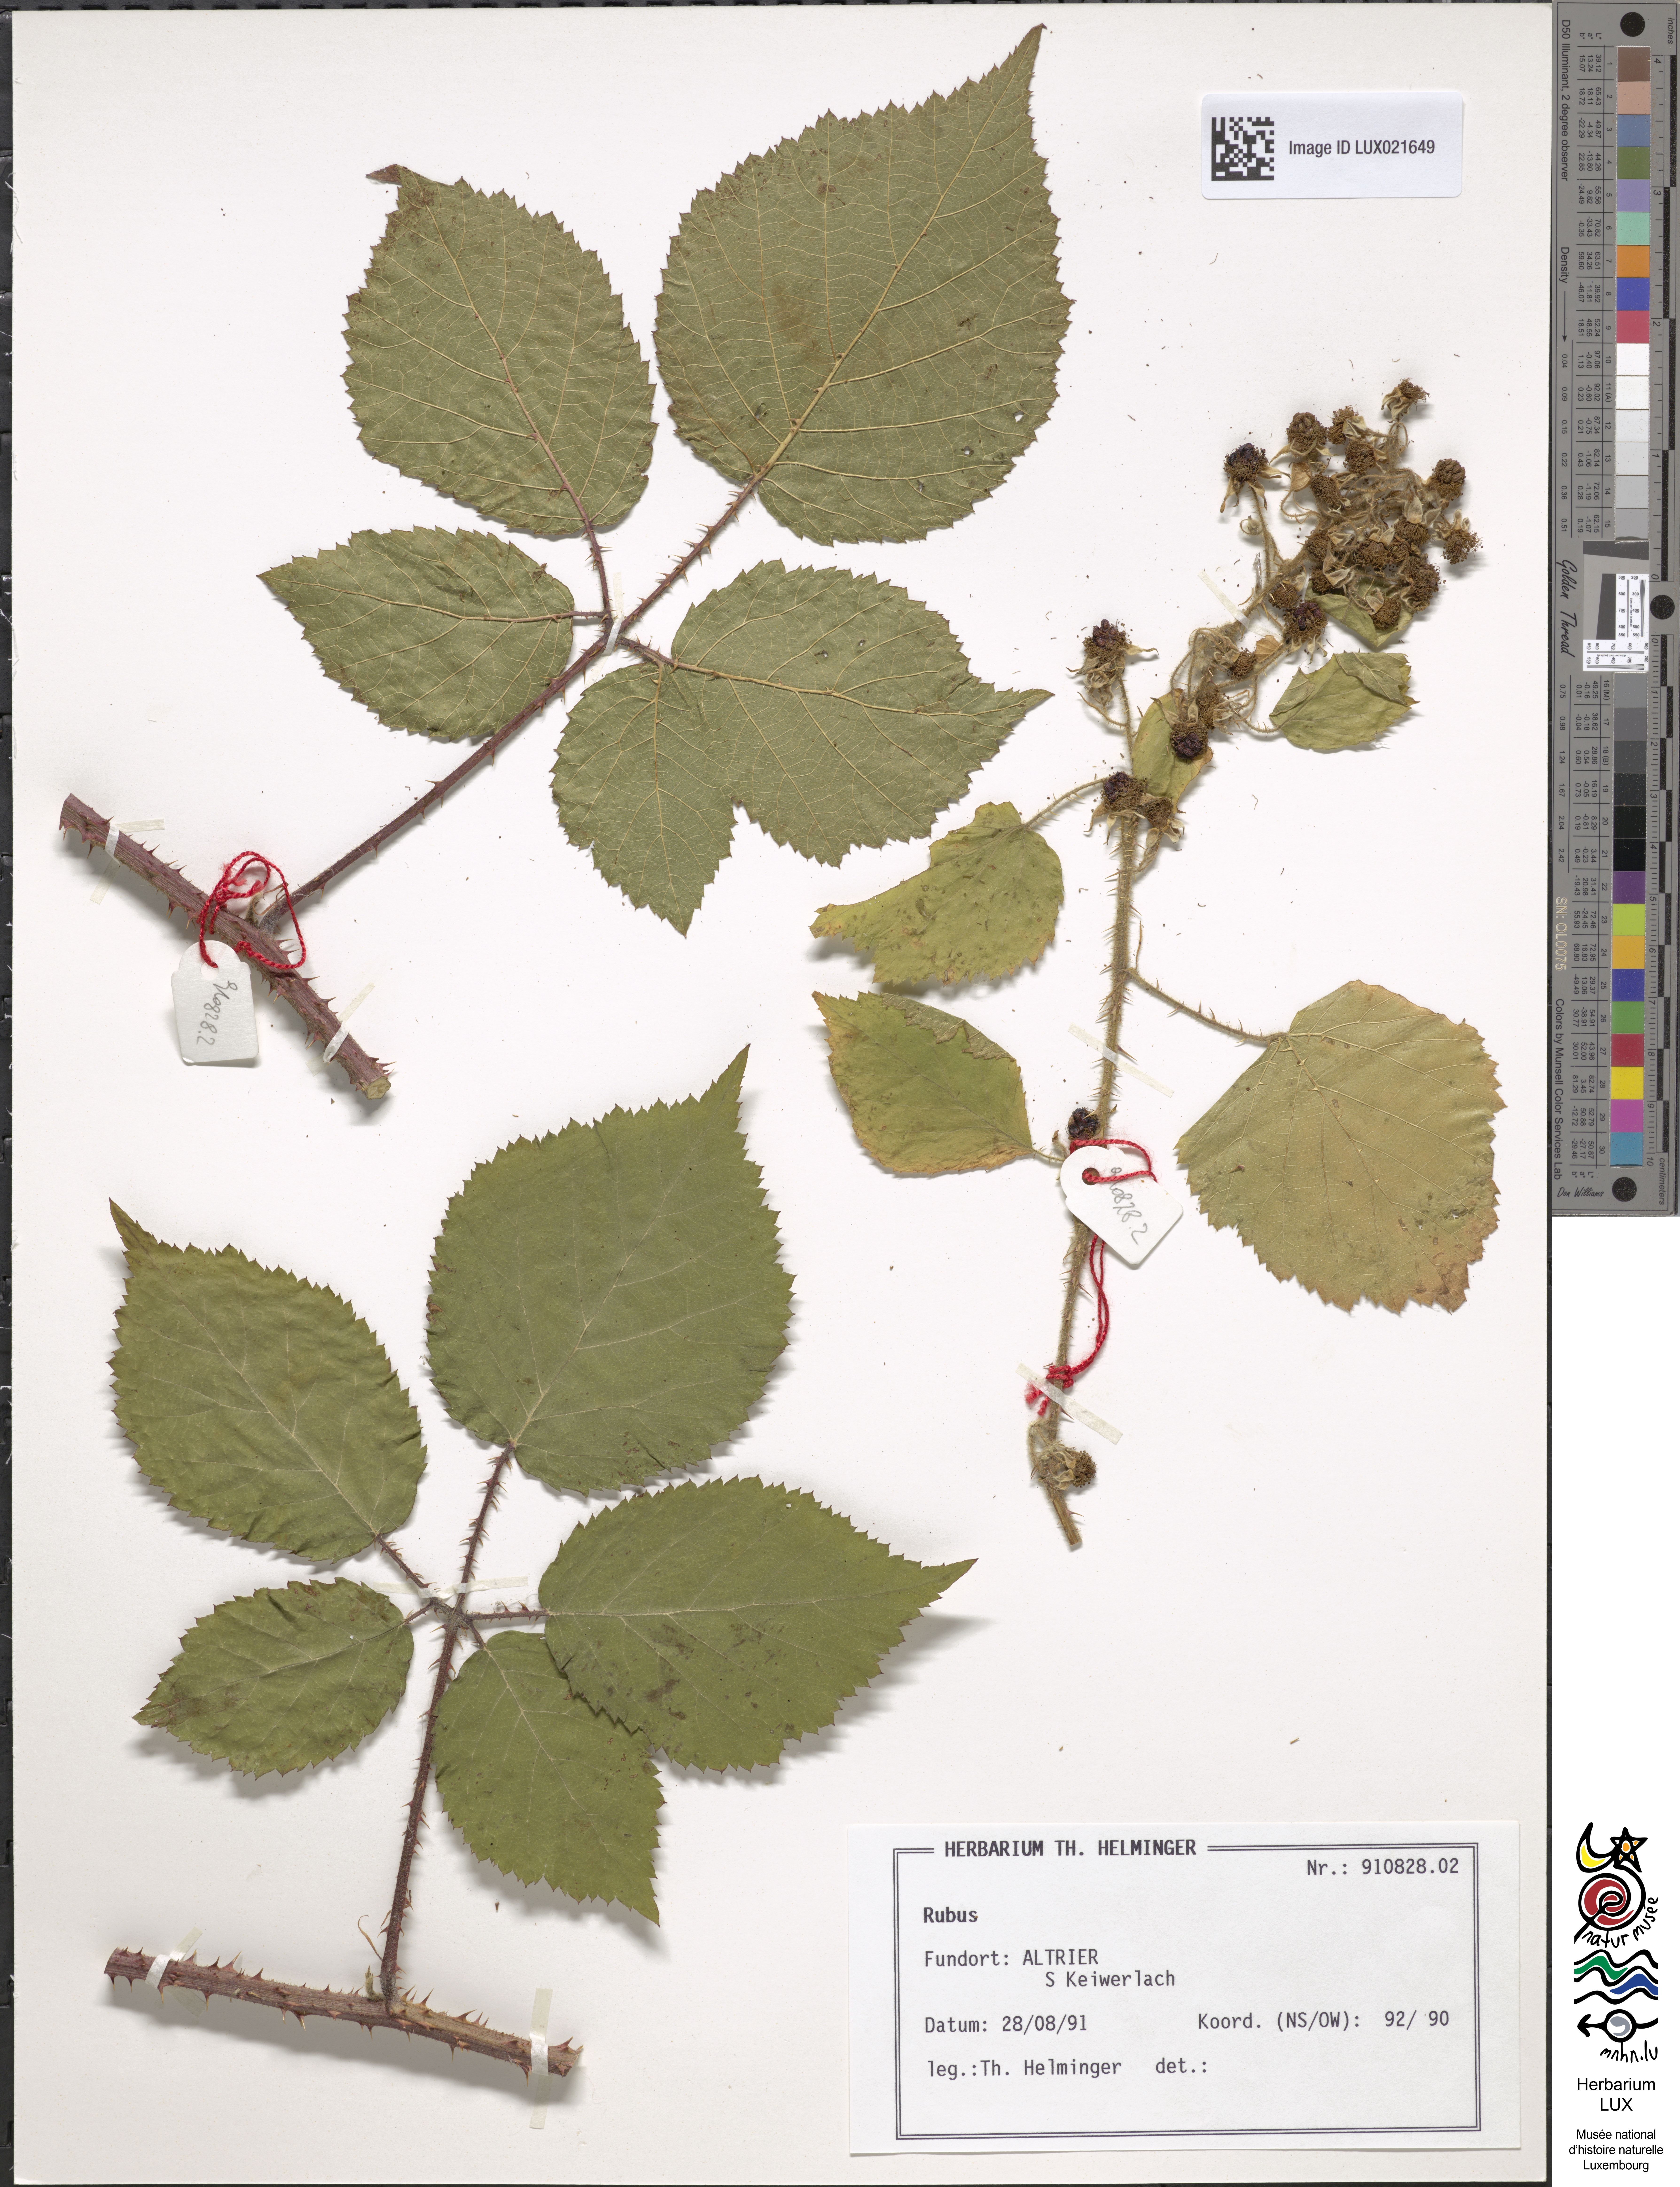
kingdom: Plantae
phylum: Tracheophyta
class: Magnoliopsida
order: Rosales
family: Rosaceae
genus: Rubus
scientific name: Rubus
